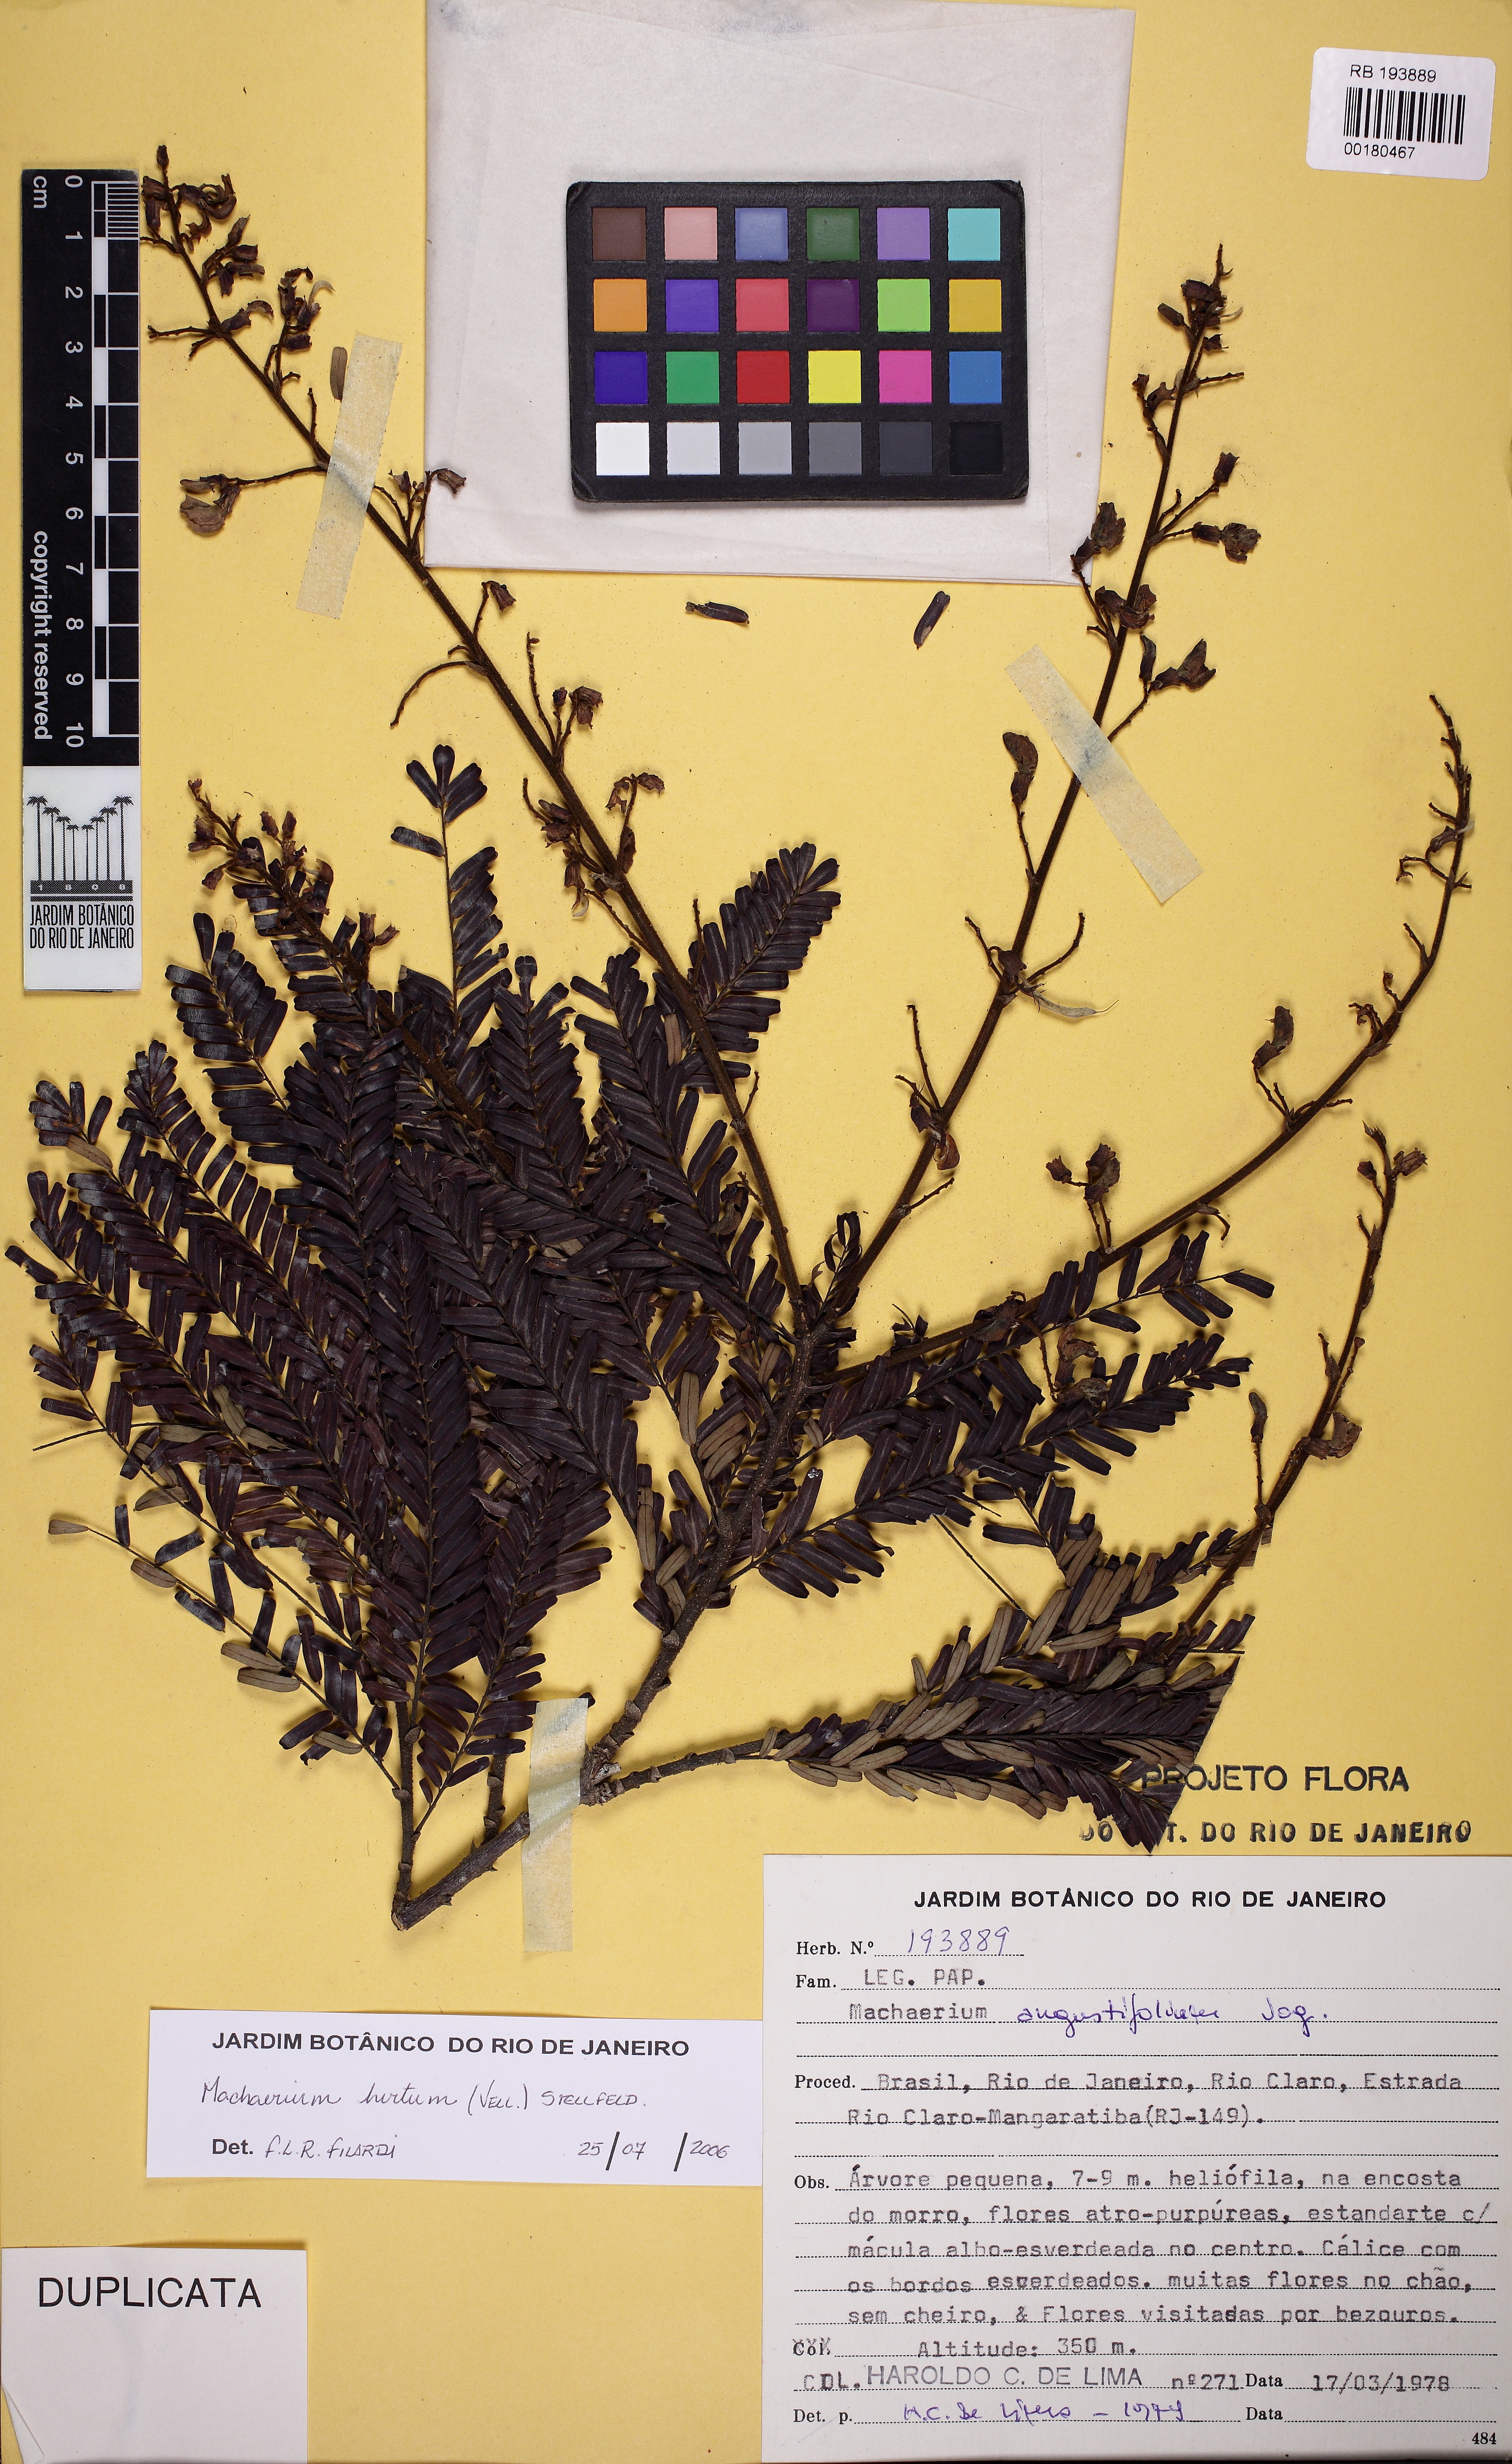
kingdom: Plantae
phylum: Tracheophyta
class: Magnoliopsida
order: Fabales
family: Fabaceae
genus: Machaerium
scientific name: Machaerium hirtum
